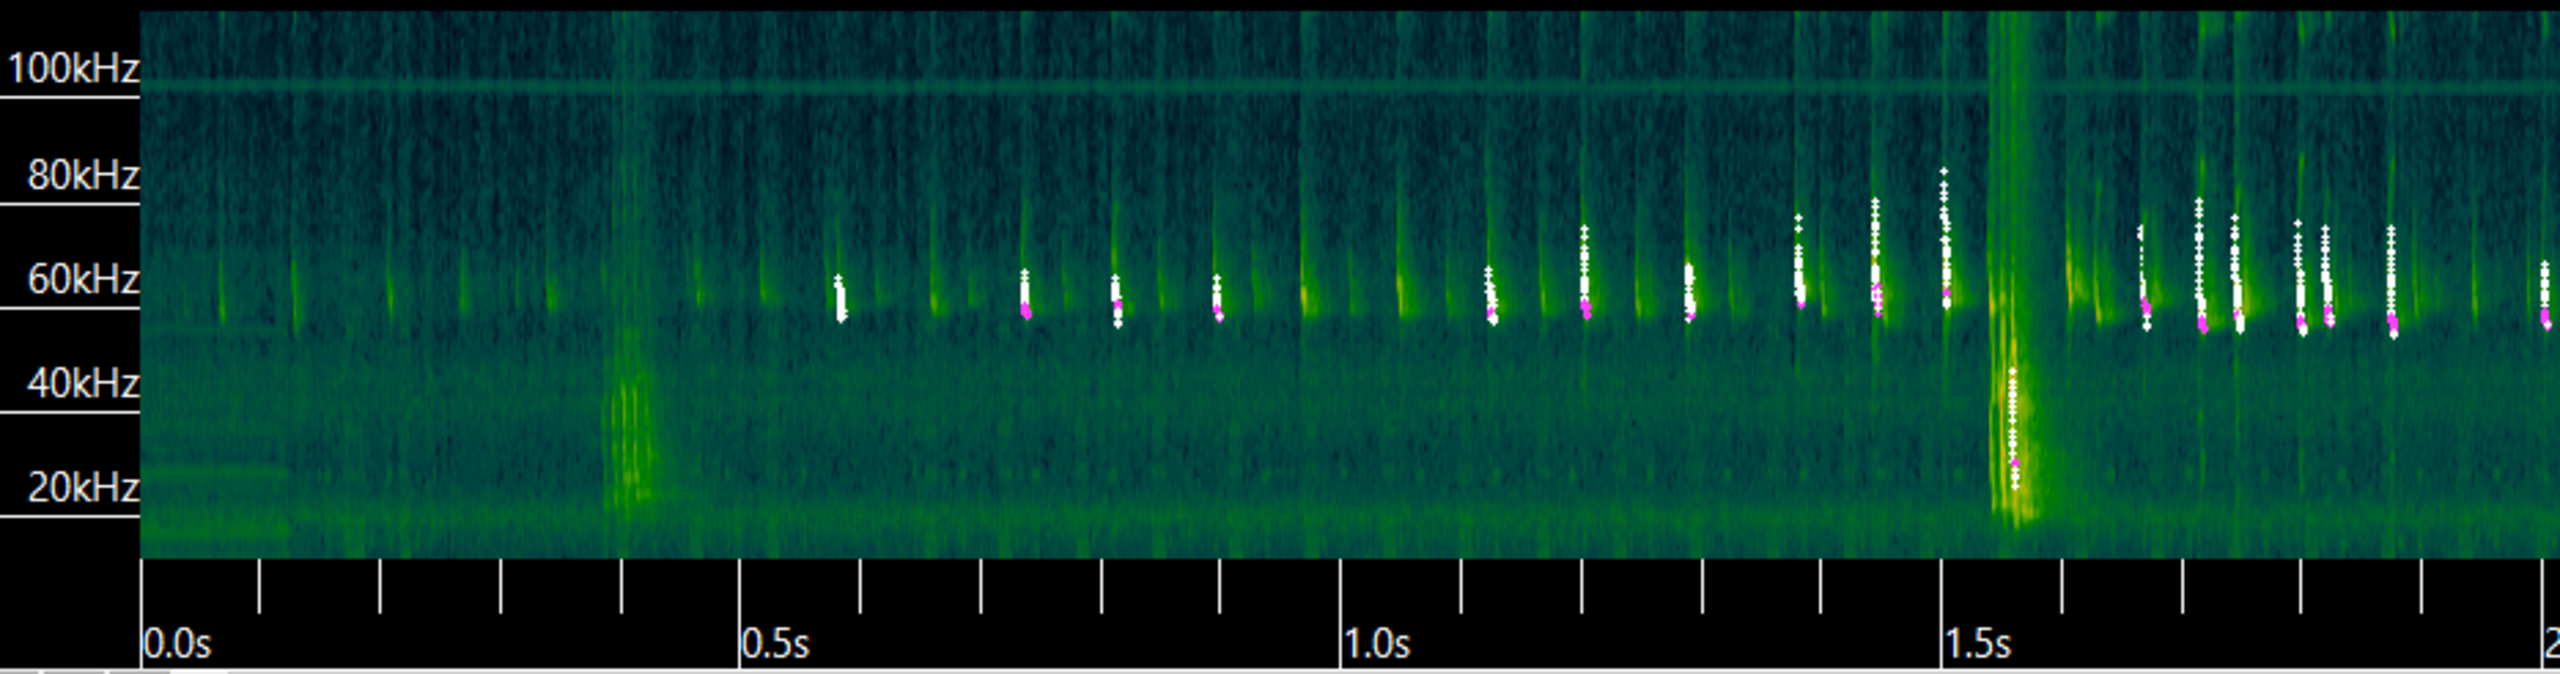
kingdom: Animalia
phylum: Chordata
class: Mammalia
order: Chiroptera
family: Vespertilionidae
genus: Pipistrellus
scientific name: Pipistrellus pygmaeus
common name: Dværgflagermus
